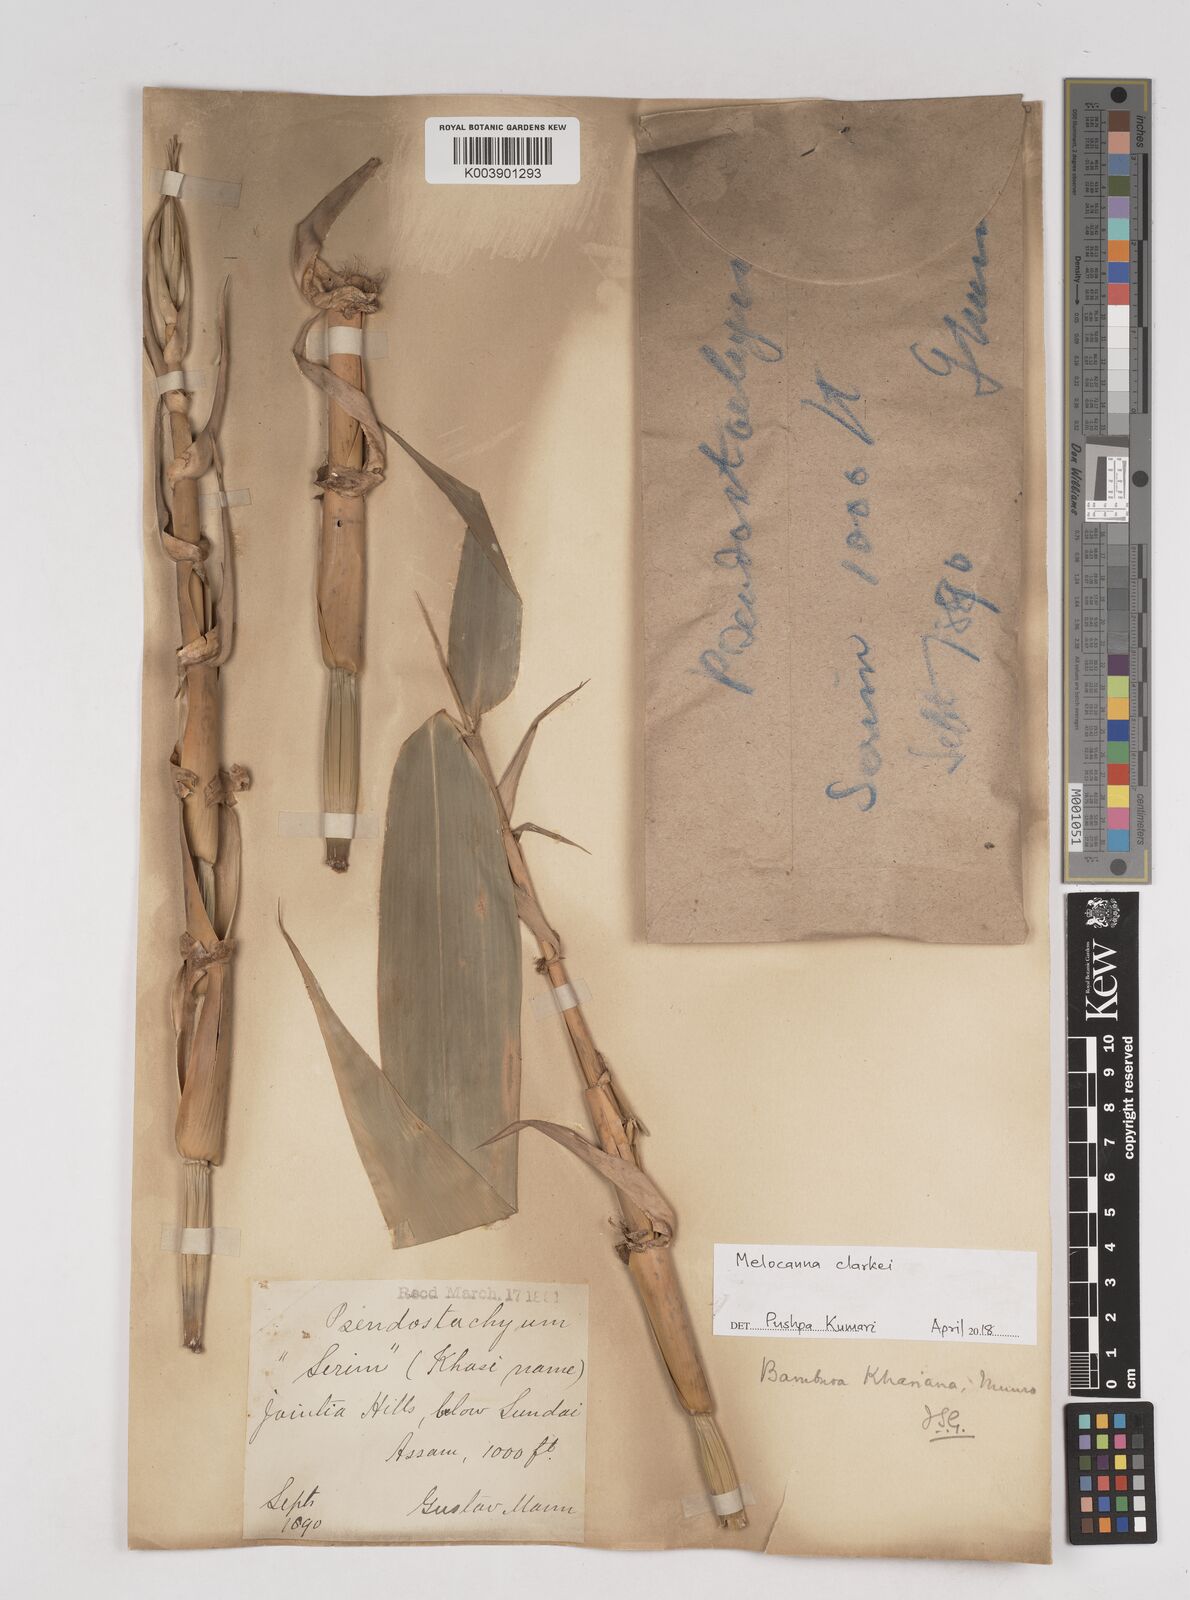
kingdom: Plantae
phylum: Tracheophyta
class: Liliopsida
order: Poales
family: Poaceae
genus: Melocanna
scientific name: Melocanna clarkei
